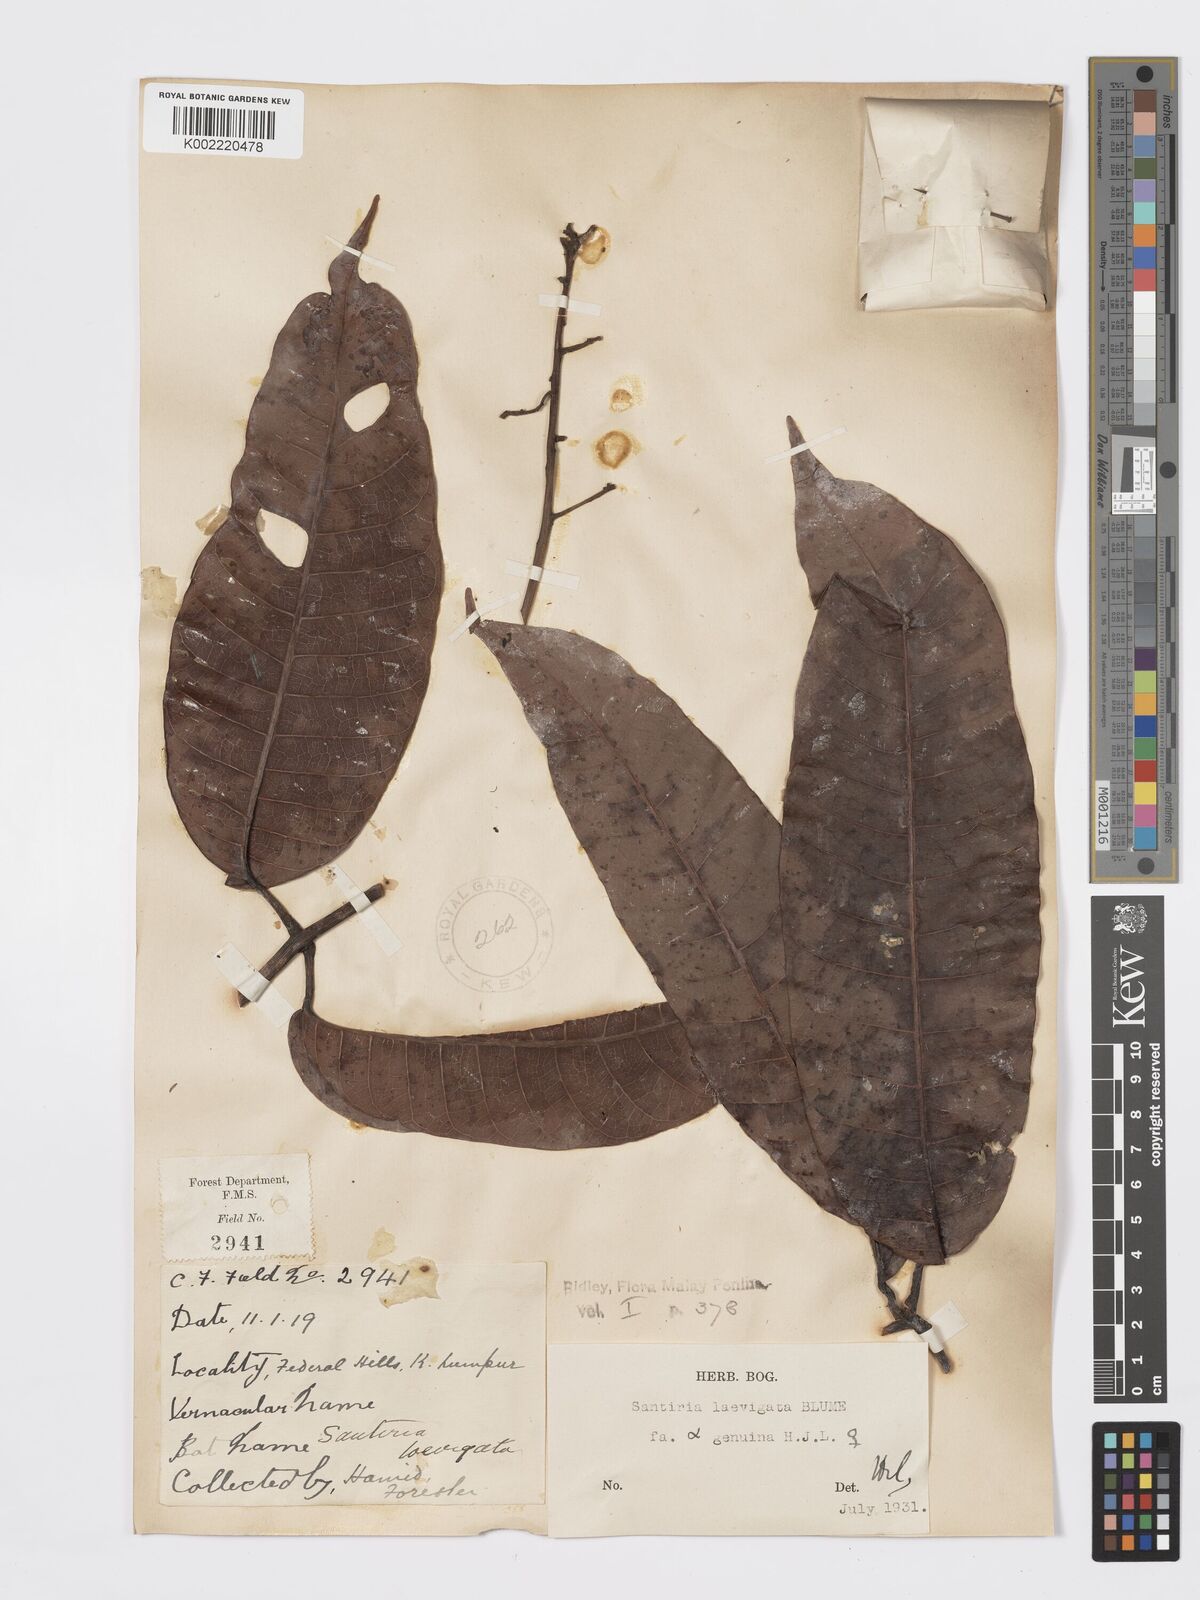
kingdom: Plantae
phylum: Tracheophyta
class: Magnoliopsida
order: Sapindales
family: Burseraceae
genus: Santiria
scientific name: Santiria laevigata
